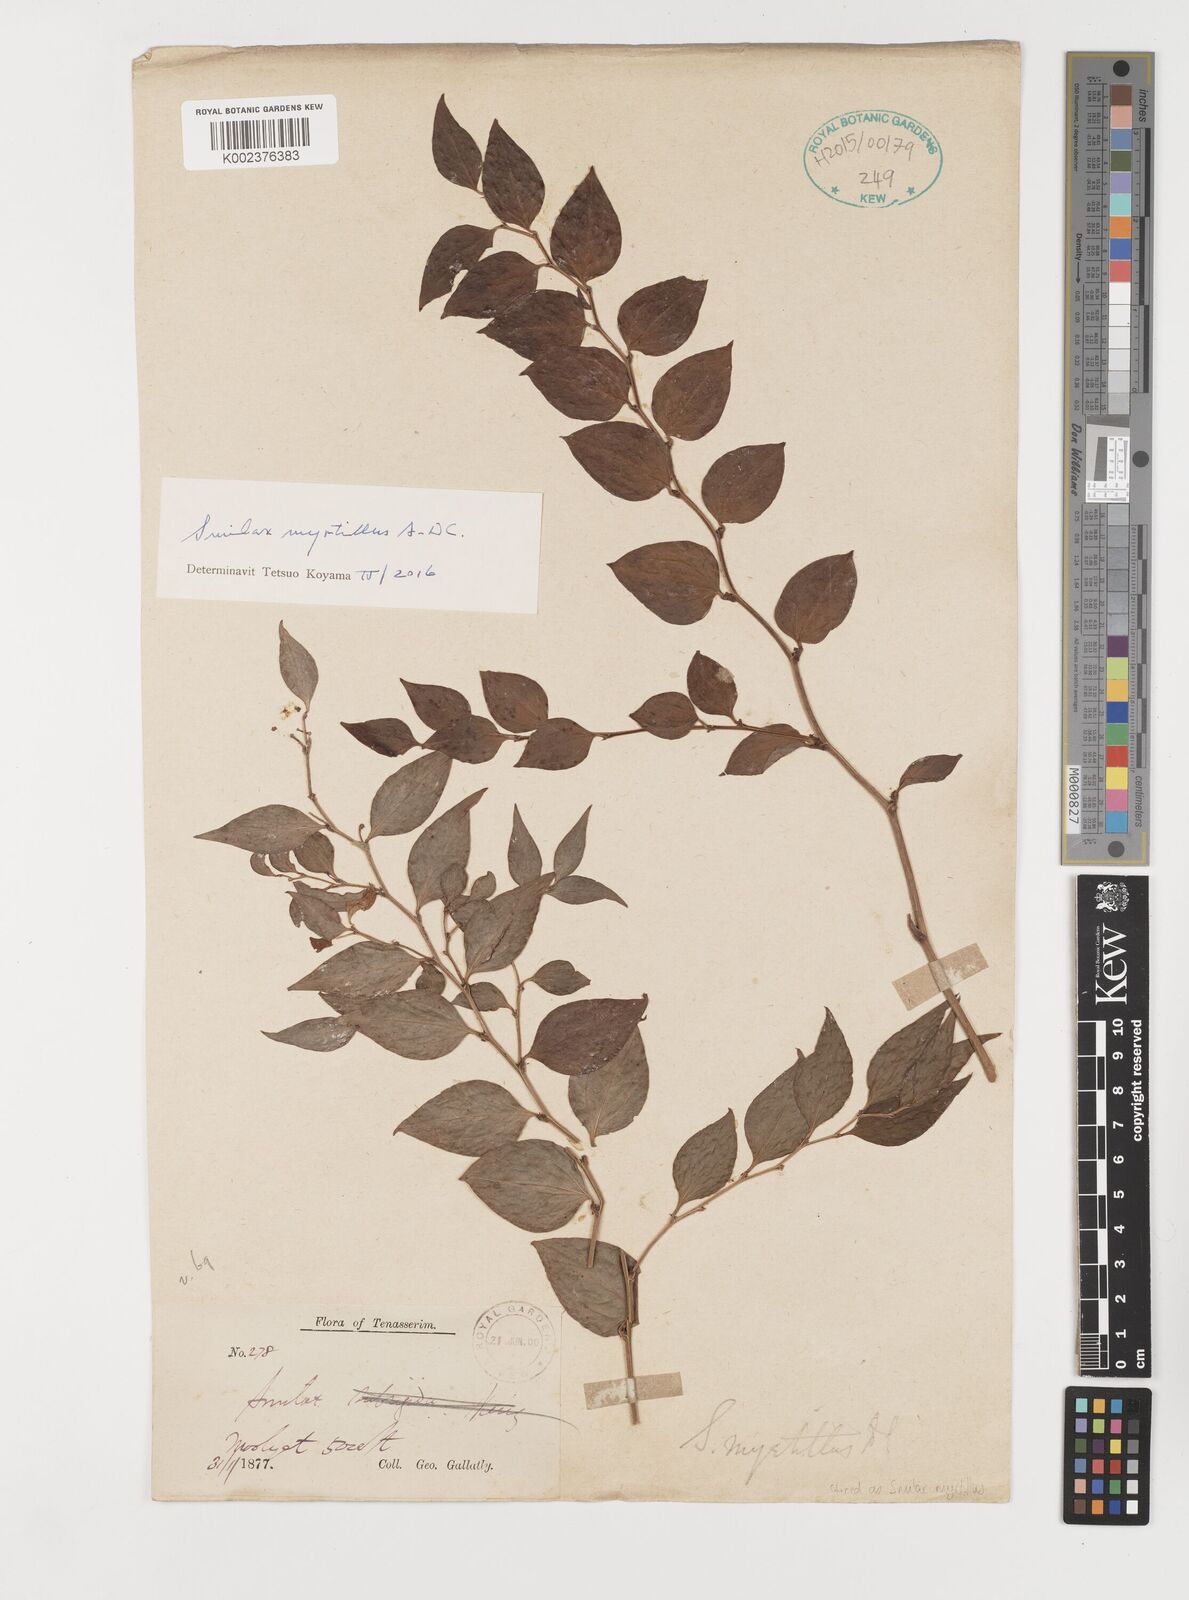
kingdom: Plantae
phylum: Tracheophyta
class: Liliopsida
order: Liliales
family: Smilacaceae
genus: Smilax
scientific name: Smilax myrtillus
